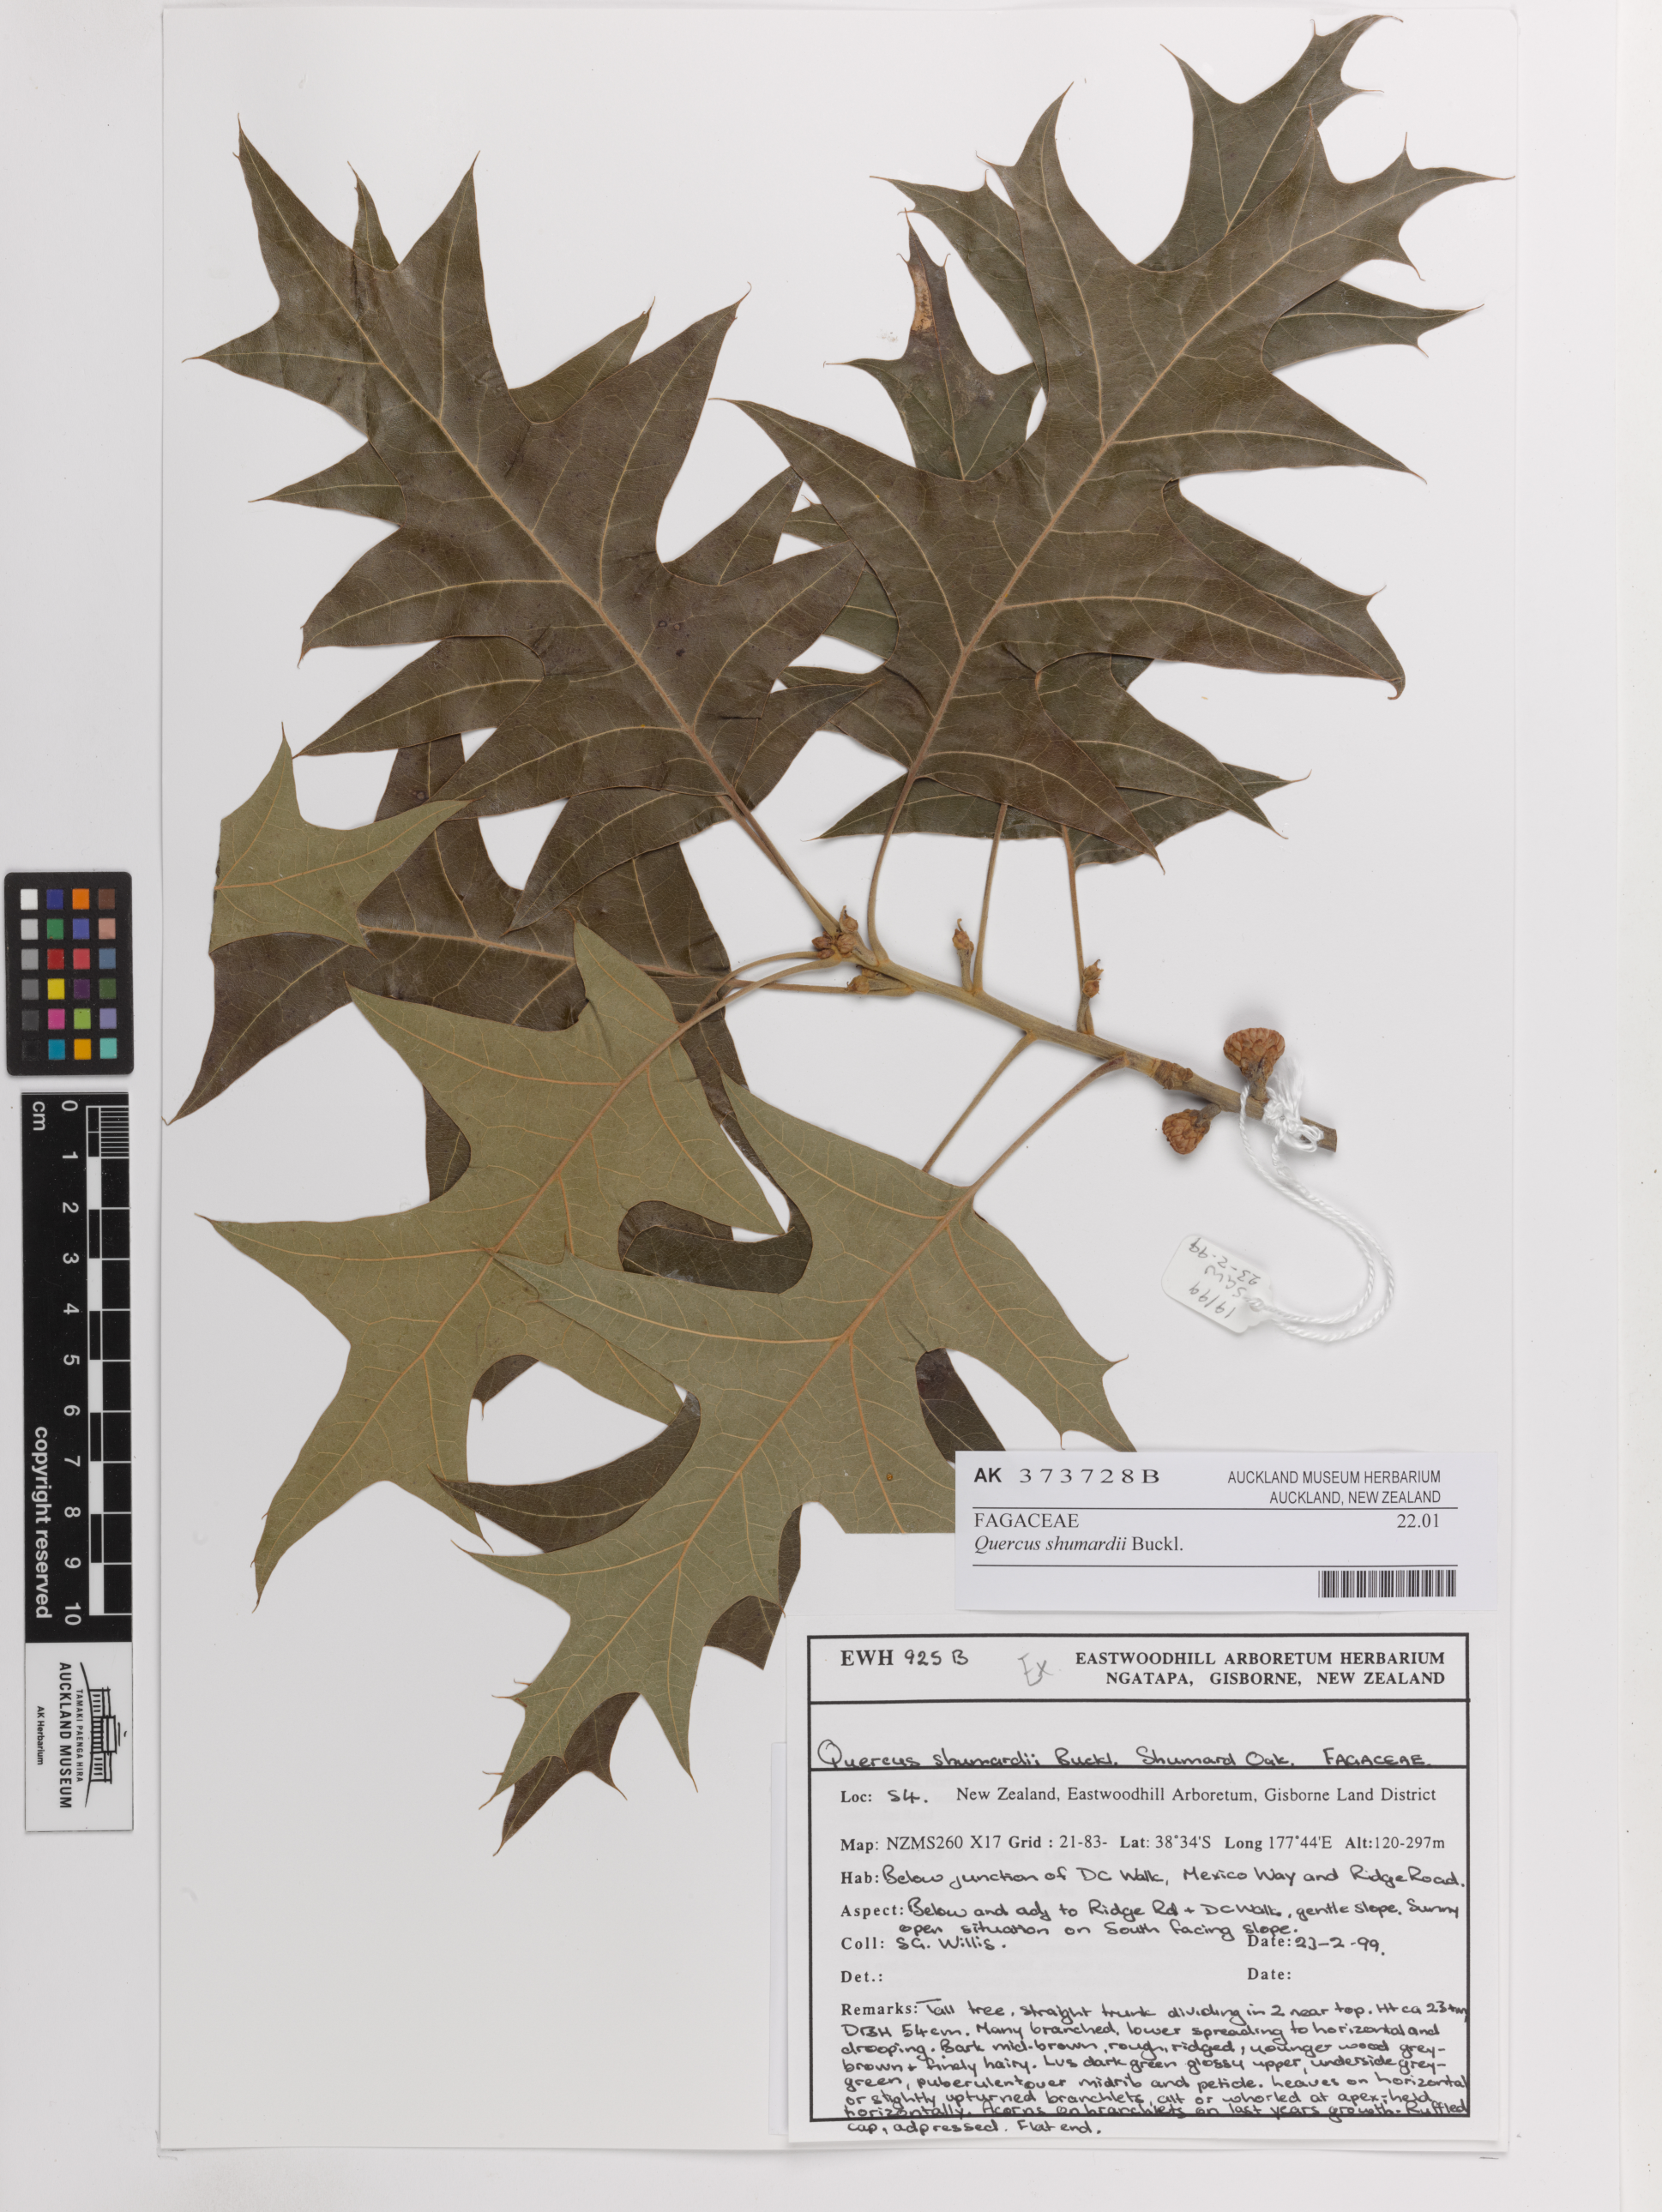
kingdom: Plantae
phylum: Tracheophyta
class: Magnoliopsida
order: Fagales
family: Fagaceae
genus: Quercus
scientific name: Quercus shumardii
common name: Shumard oak
